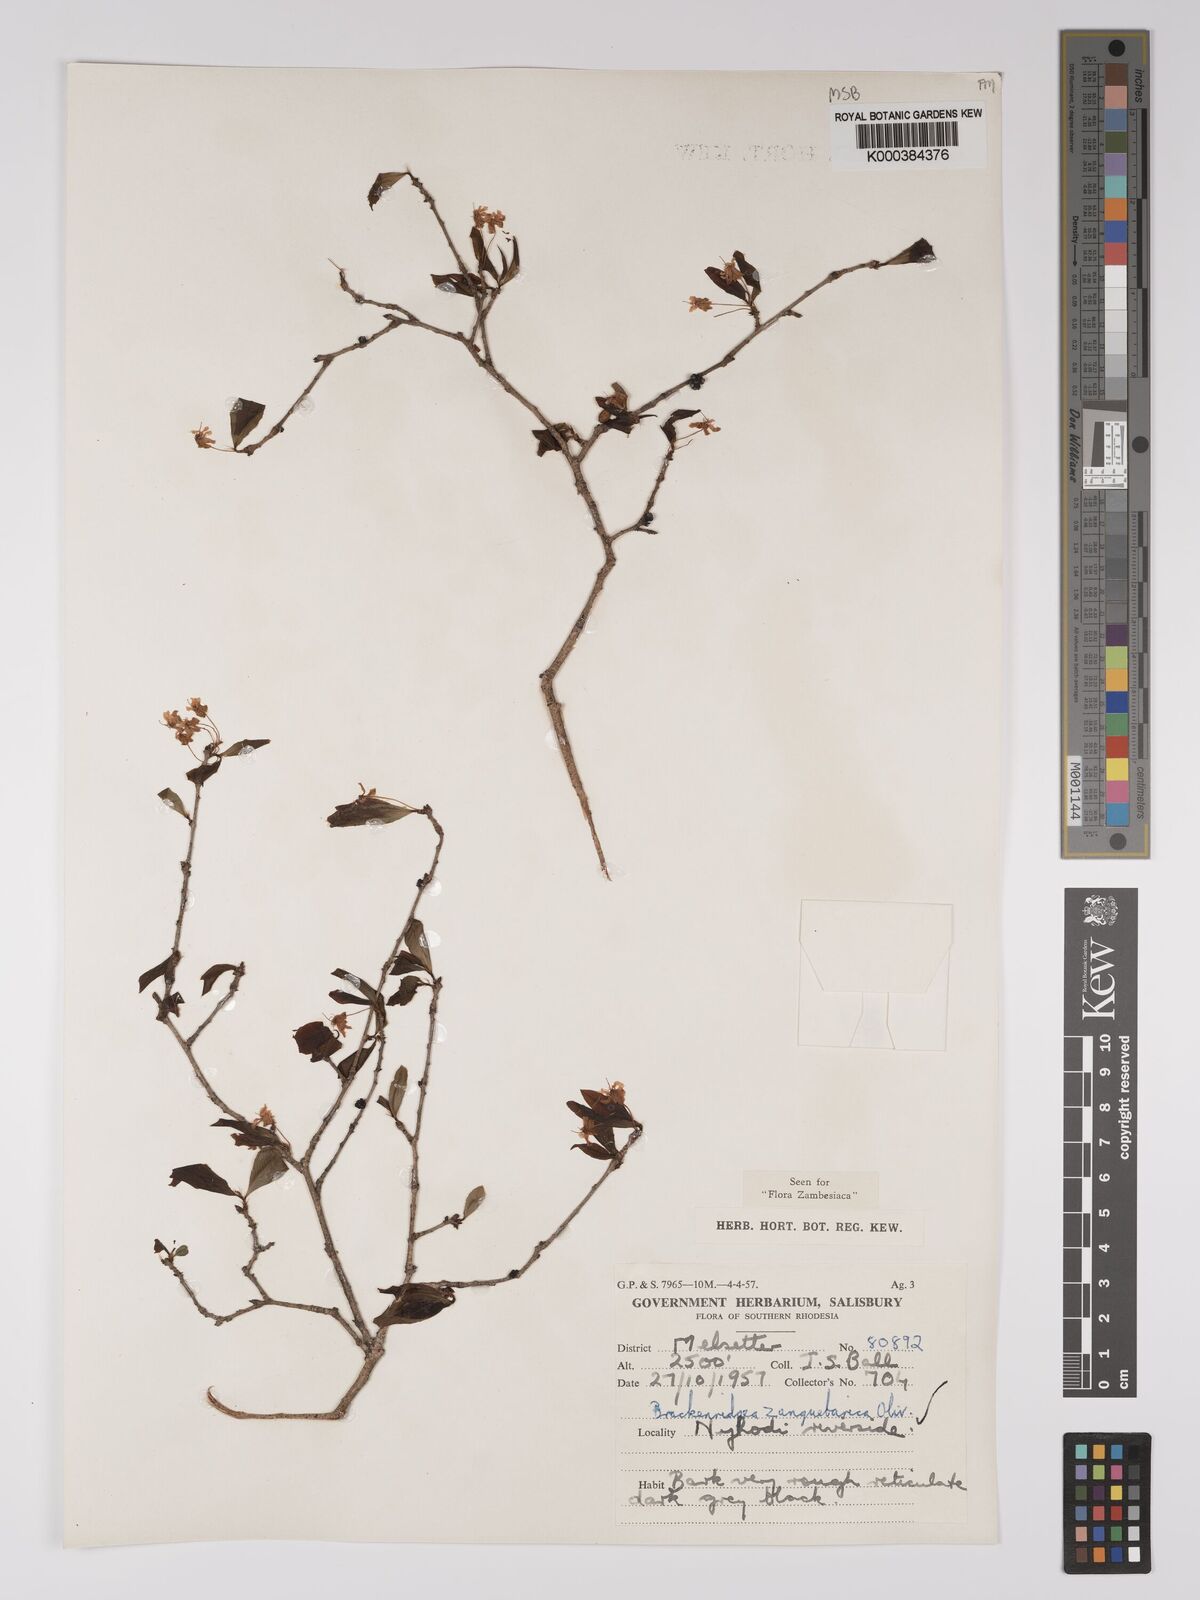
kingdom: Plantae
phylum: Tracheophyta
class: Magnoliopsida
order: Malpighiales
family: Ochnaceae
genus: Brackenridgea
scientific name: Brackenridgea zanguebarica
